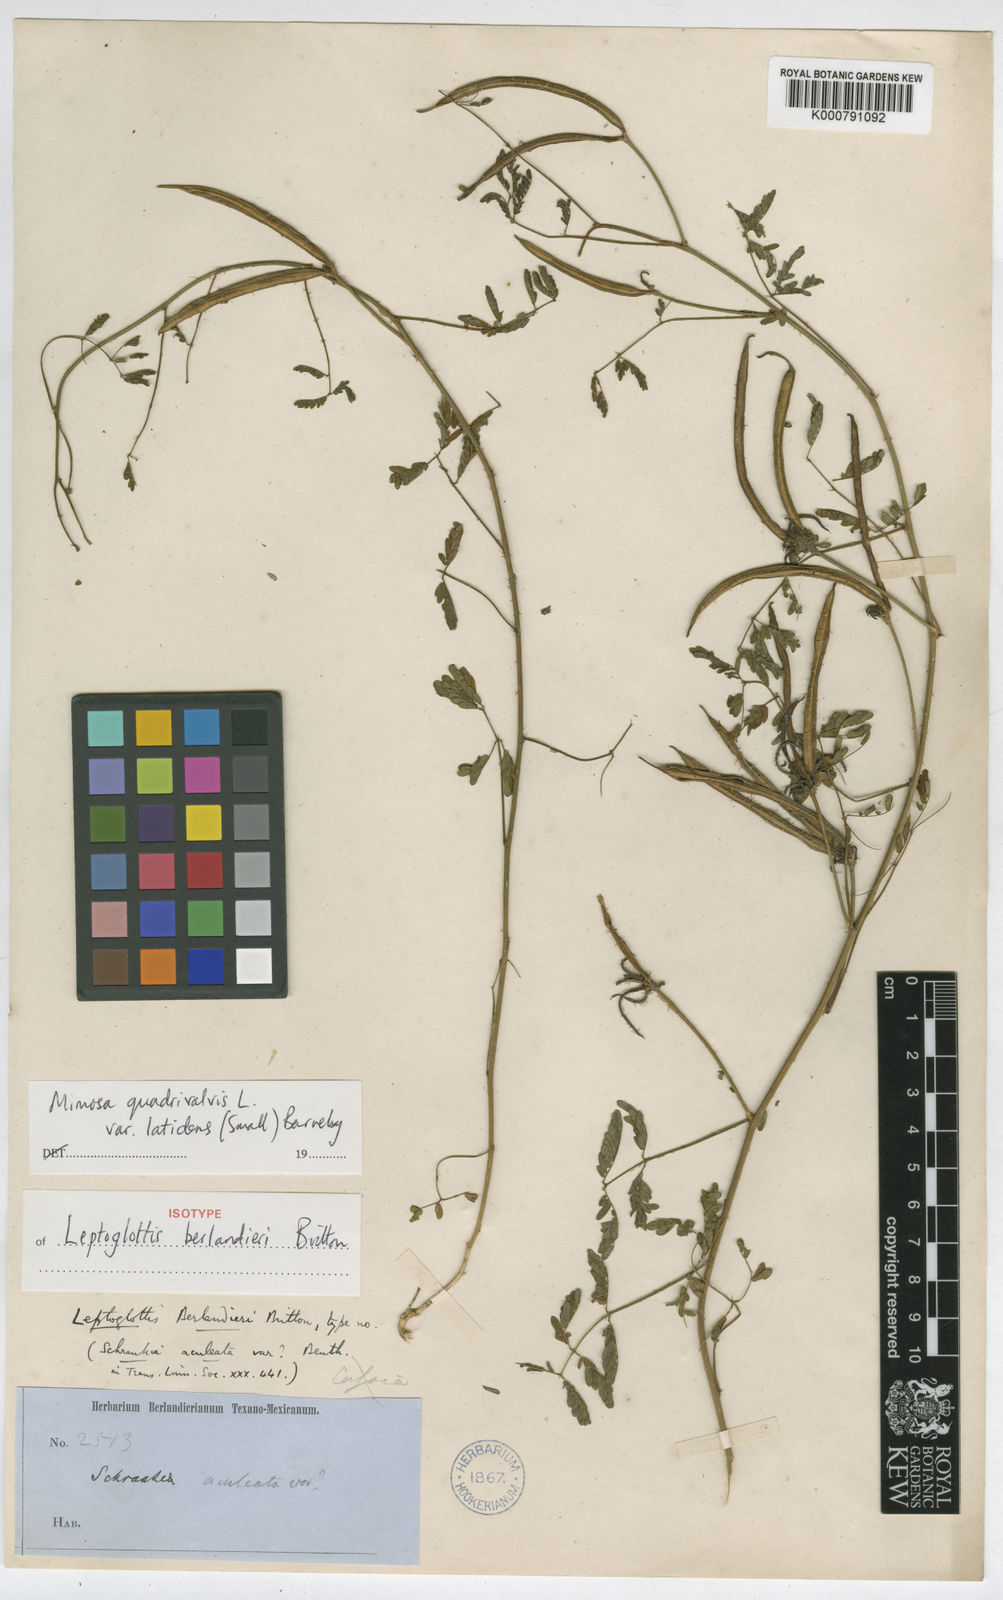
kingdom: Plantae
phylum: Tracheophyta
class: Magnoliopsida
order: Fabales
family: Fabaceae
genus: Mimosa
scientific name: Mimosa latidens
